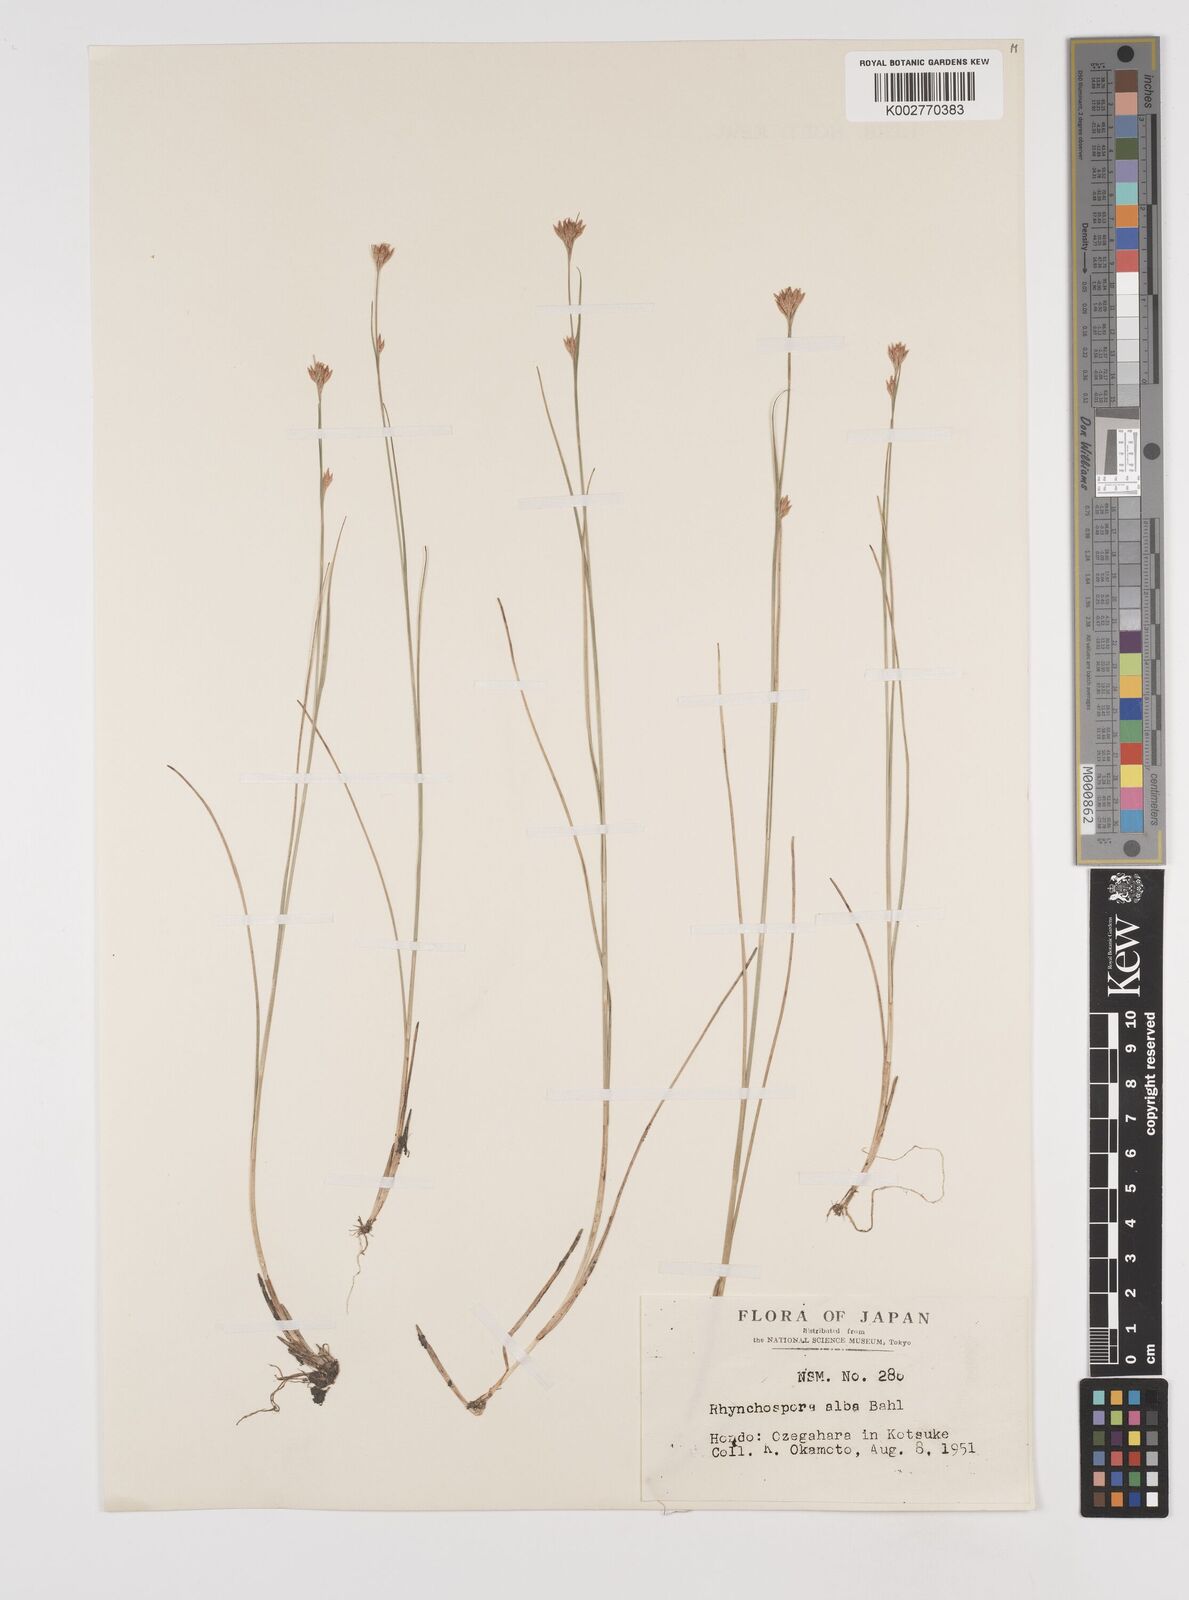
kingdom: Plantae
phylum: Tracheophyta
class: Liliopsida
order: Poales
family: Cyperaceae
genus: Rhynchospora
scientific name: Rhynchospora alba
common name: White beak-sedge
